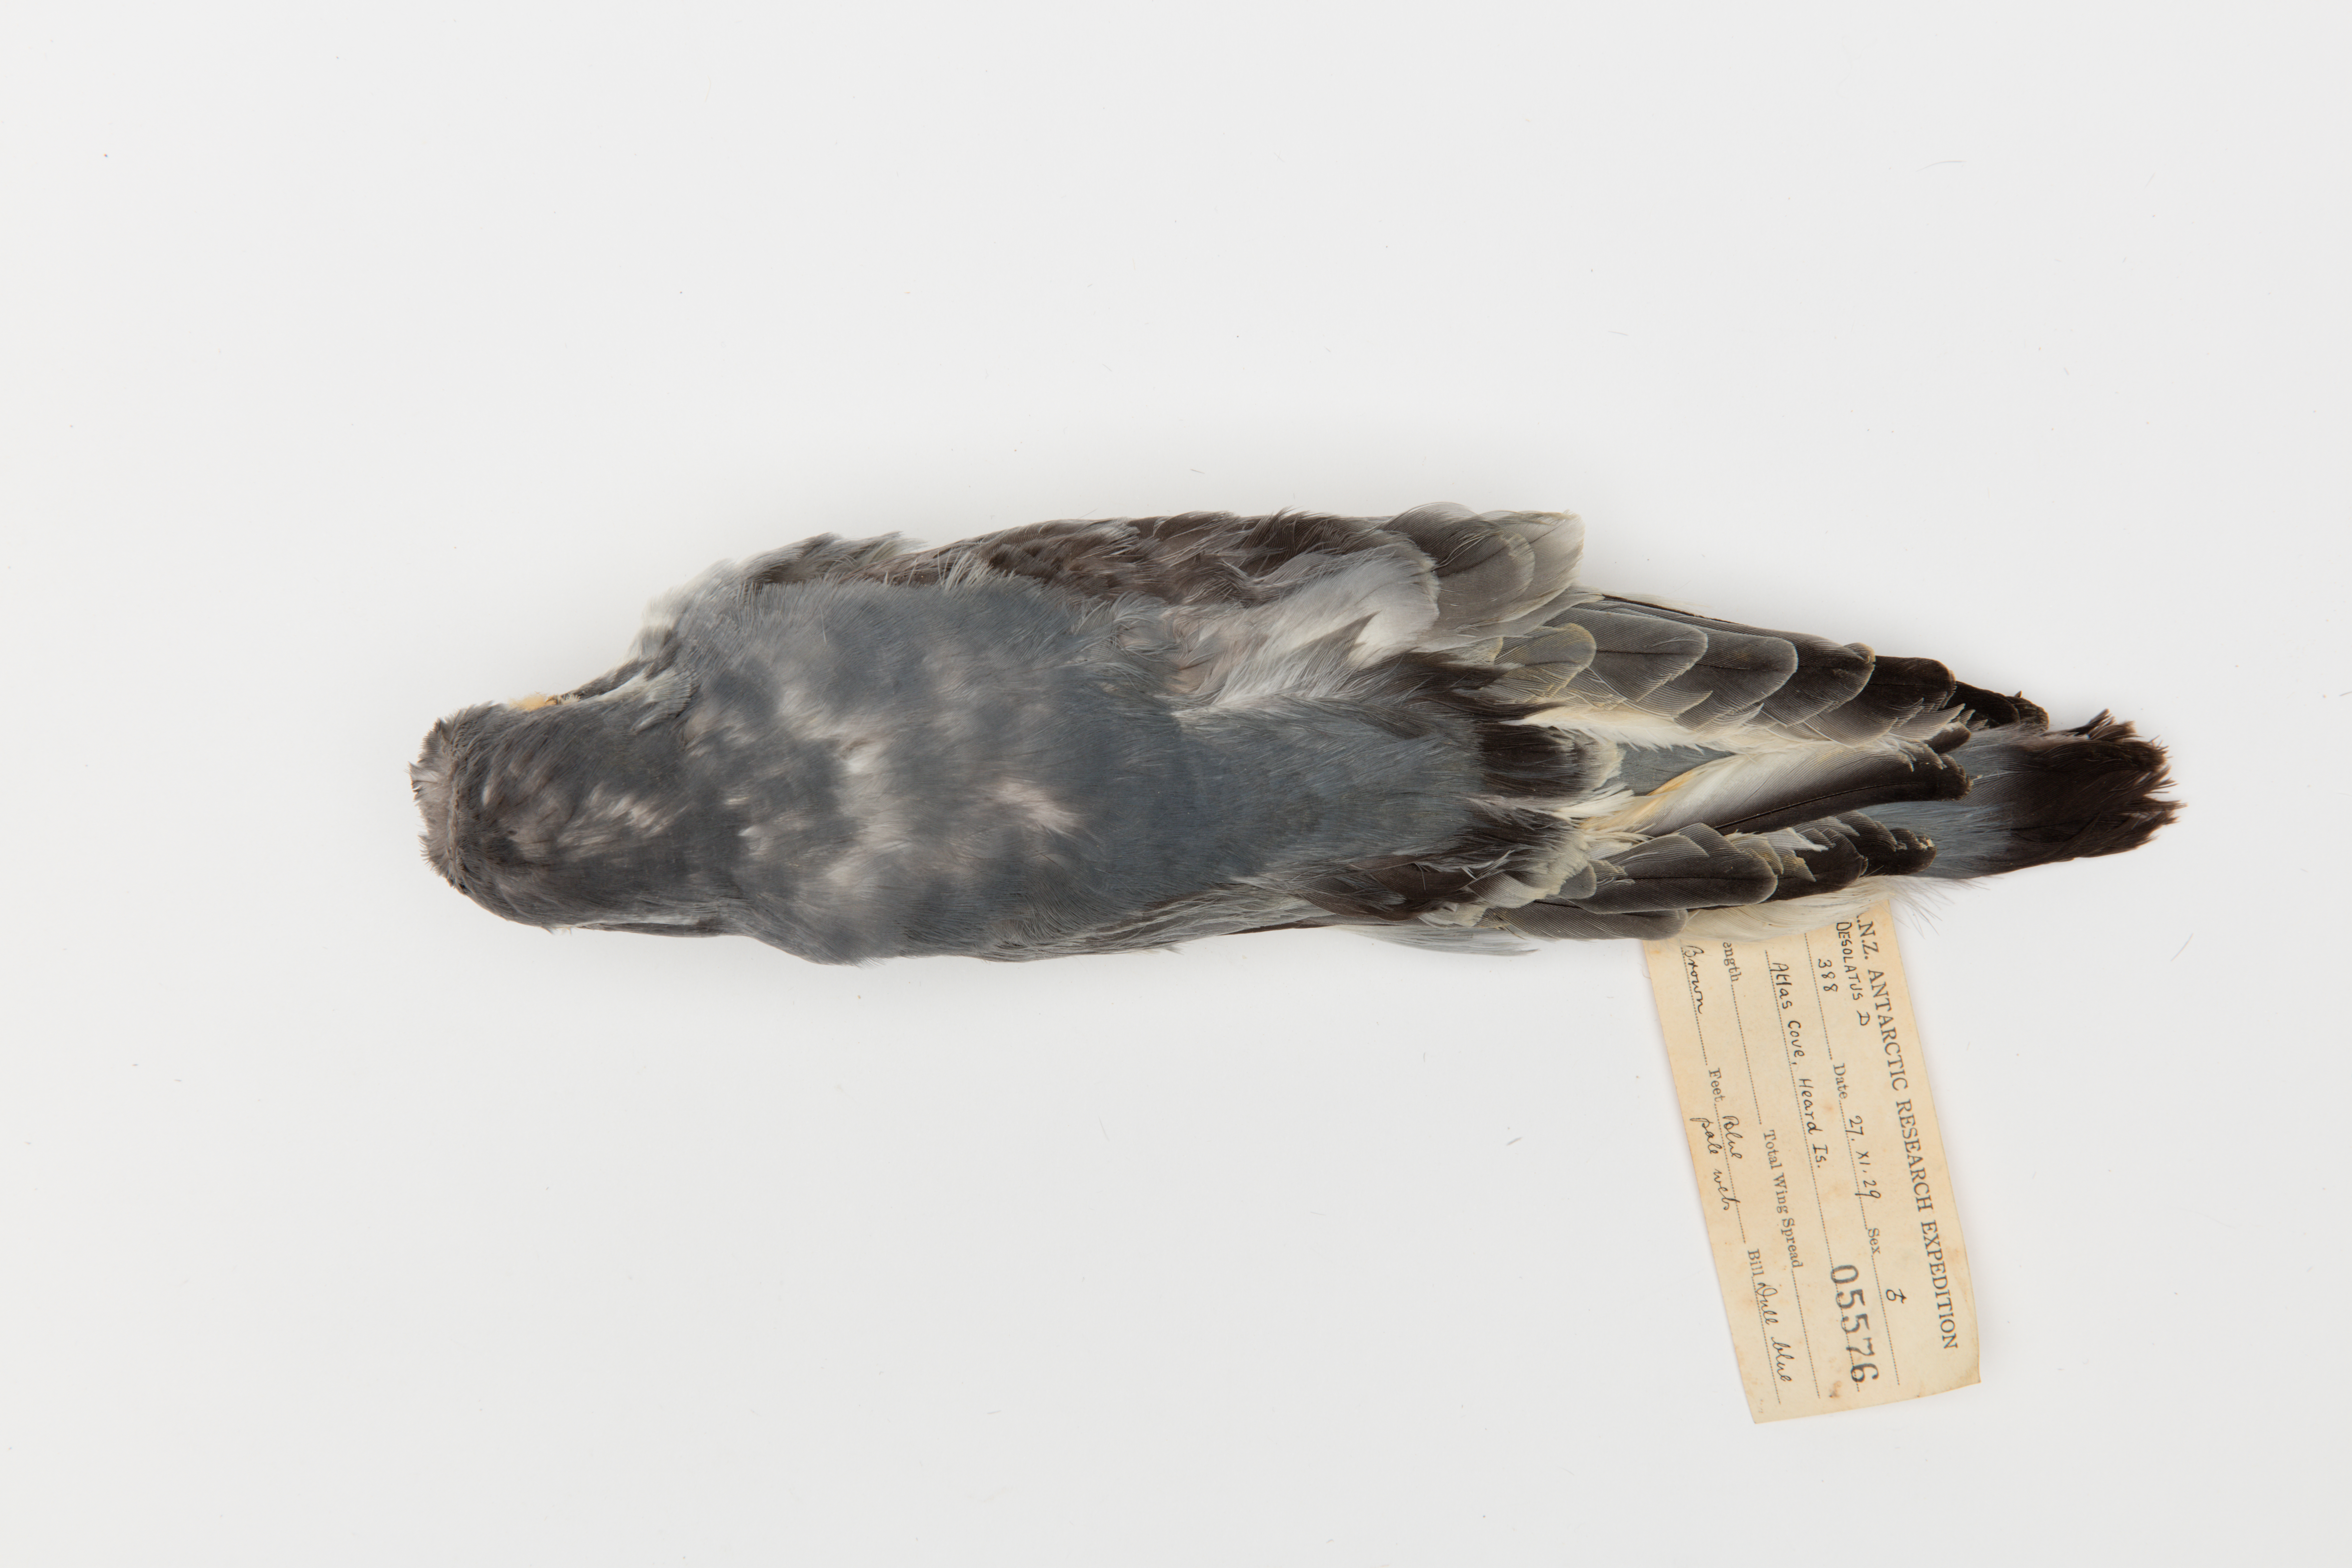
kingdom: Animalia
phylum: Chordata
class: Aves
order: Procellariiformes
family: Procellariidae
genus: Pachyptila
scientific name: Pachyptila desolata
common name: Antarctic prion
